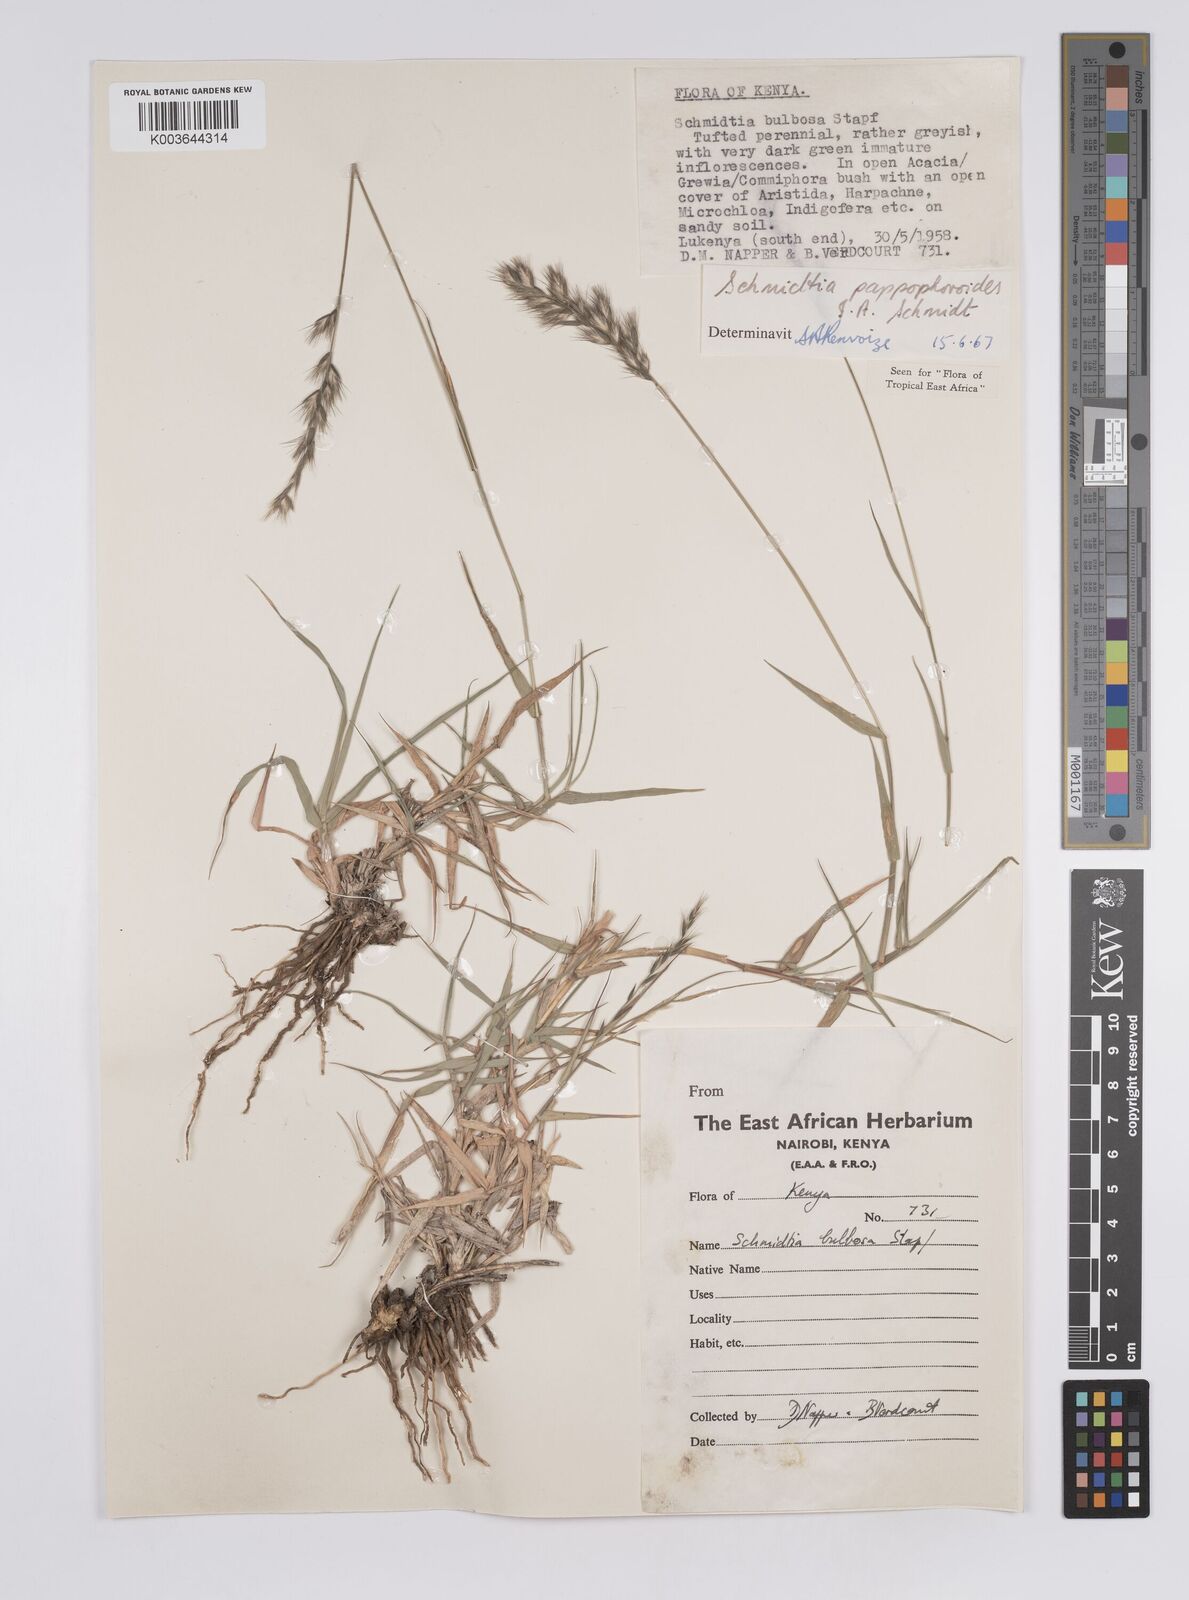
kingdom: Plantae
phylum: Tracheophyta
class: Liliopsida
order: Poales
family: Poaceae
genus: Schmidtia
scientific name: Schmidtia pappophoroides
